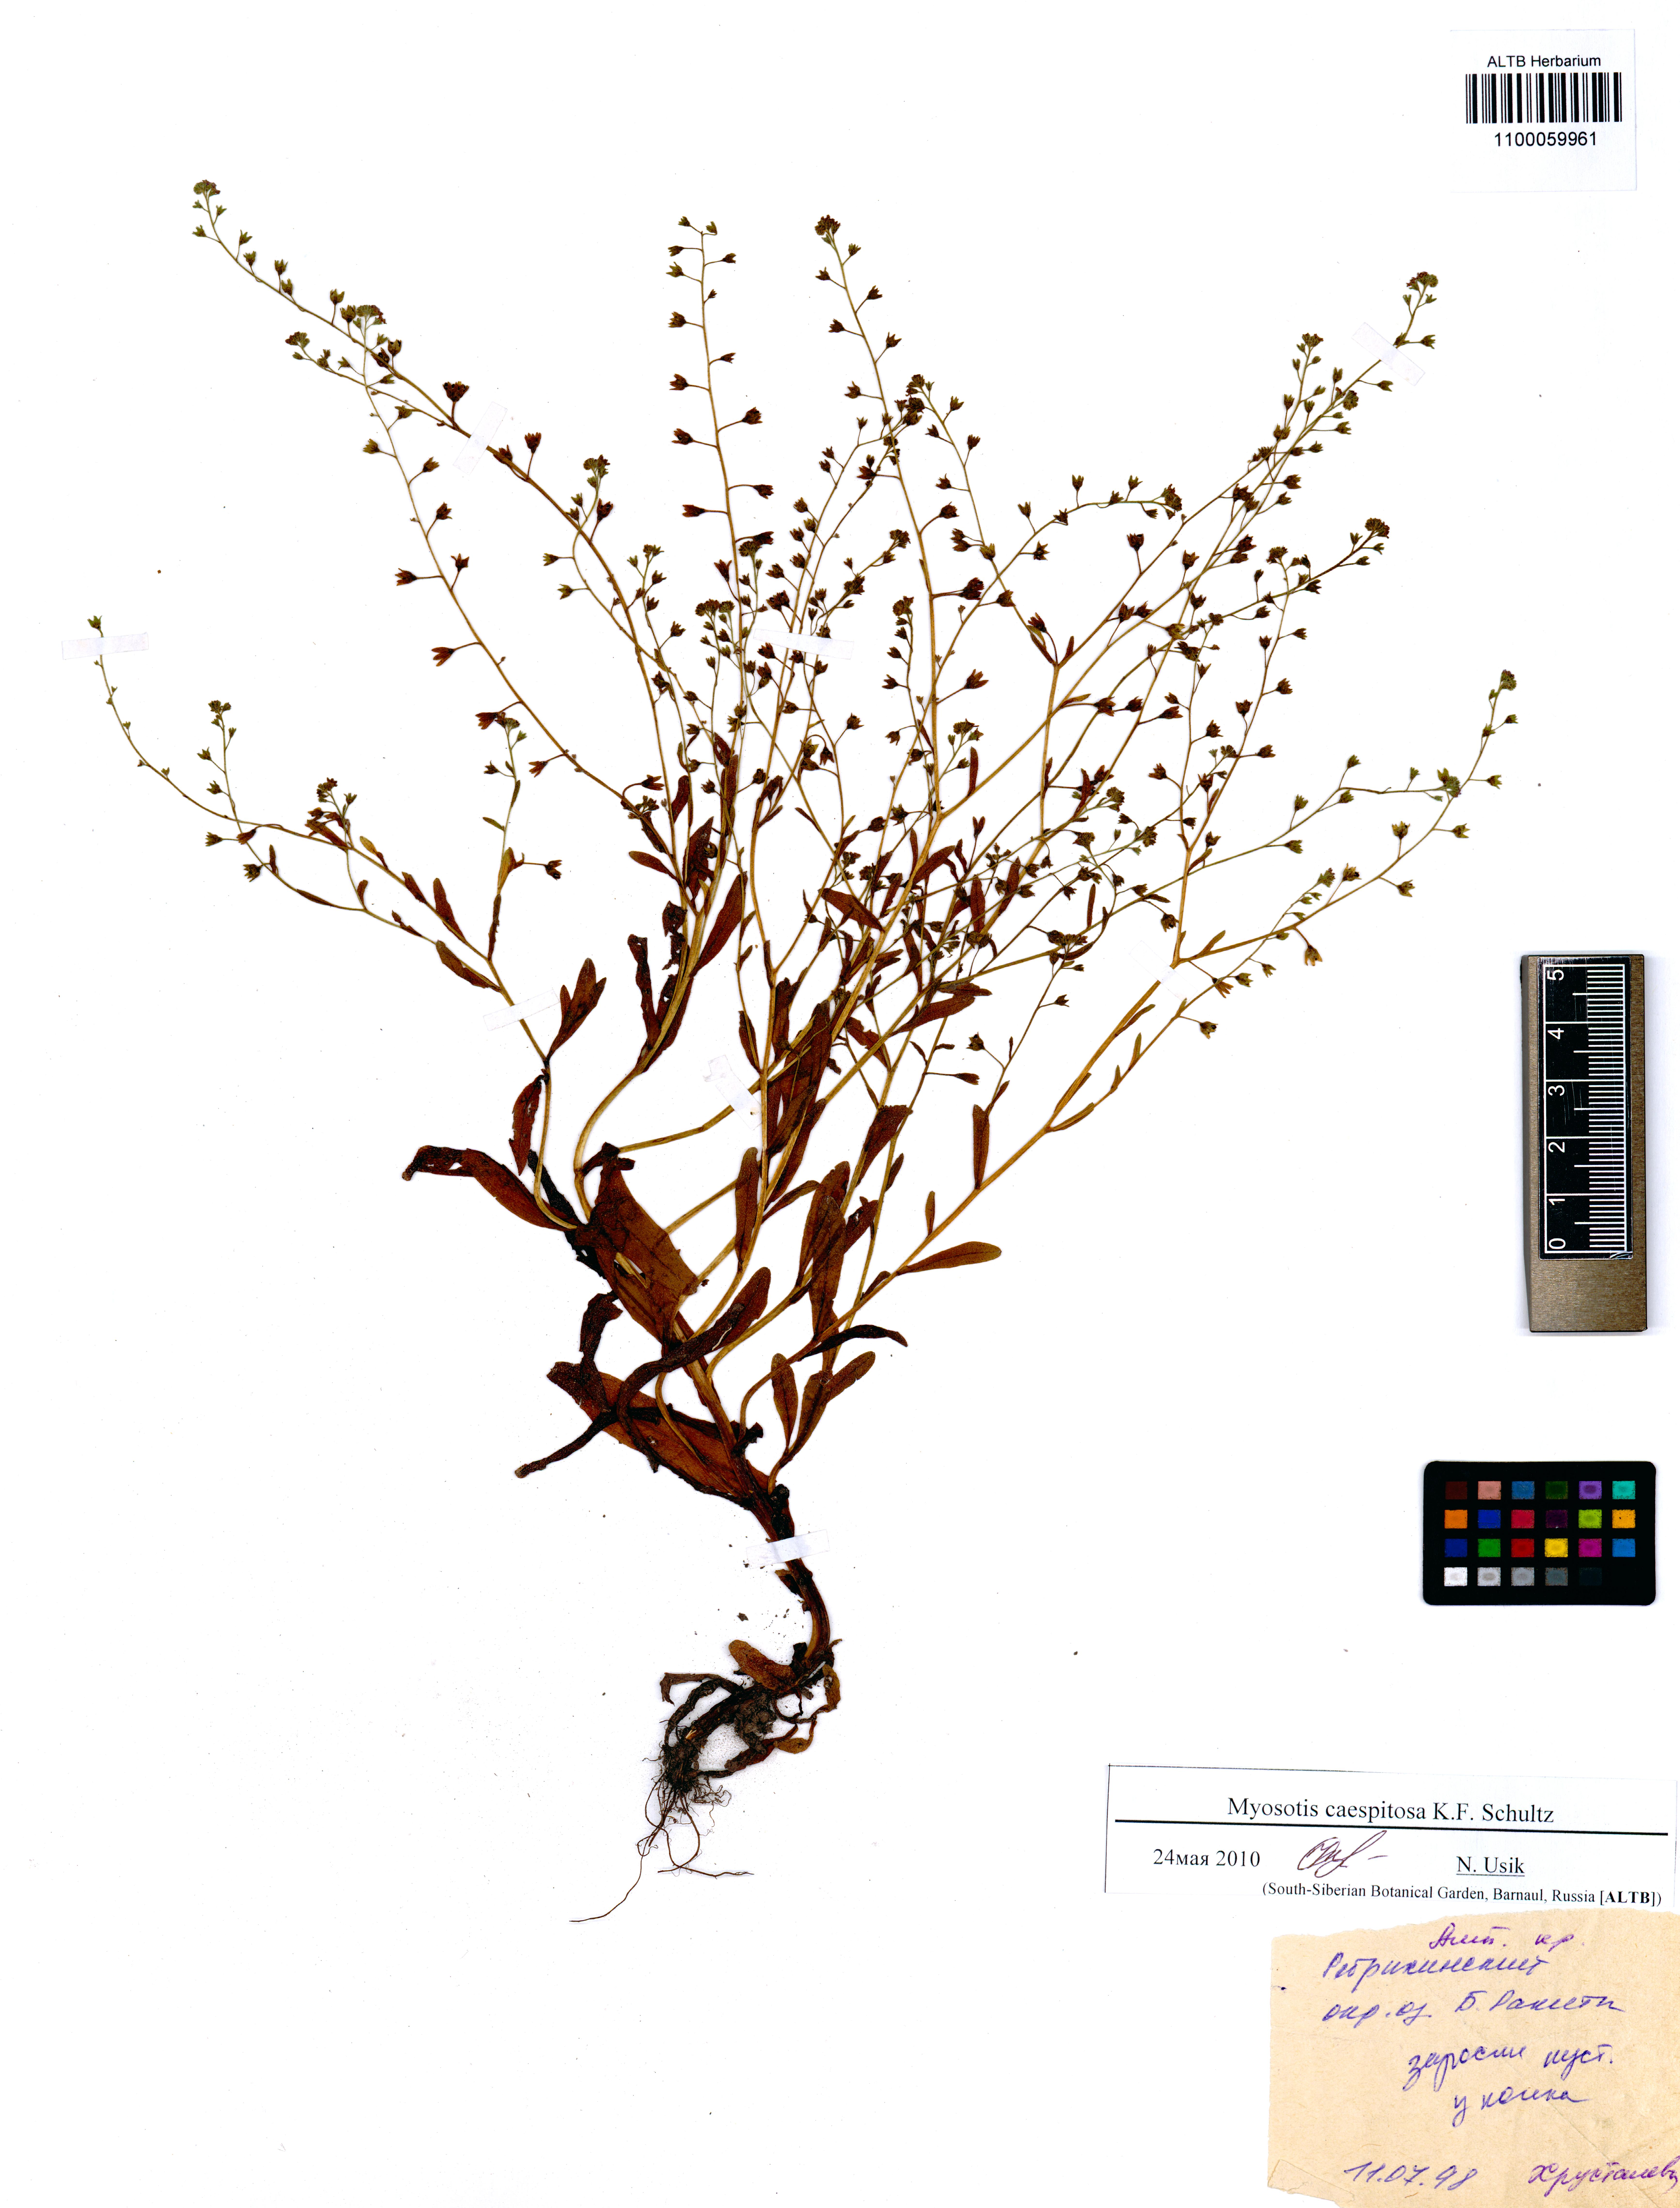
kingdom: Plantae
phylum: Tracheophyta
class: Magnoliopsida
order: Boraginales
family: Boraginaceae
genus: Myosotis
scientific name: Myosotis laxa
